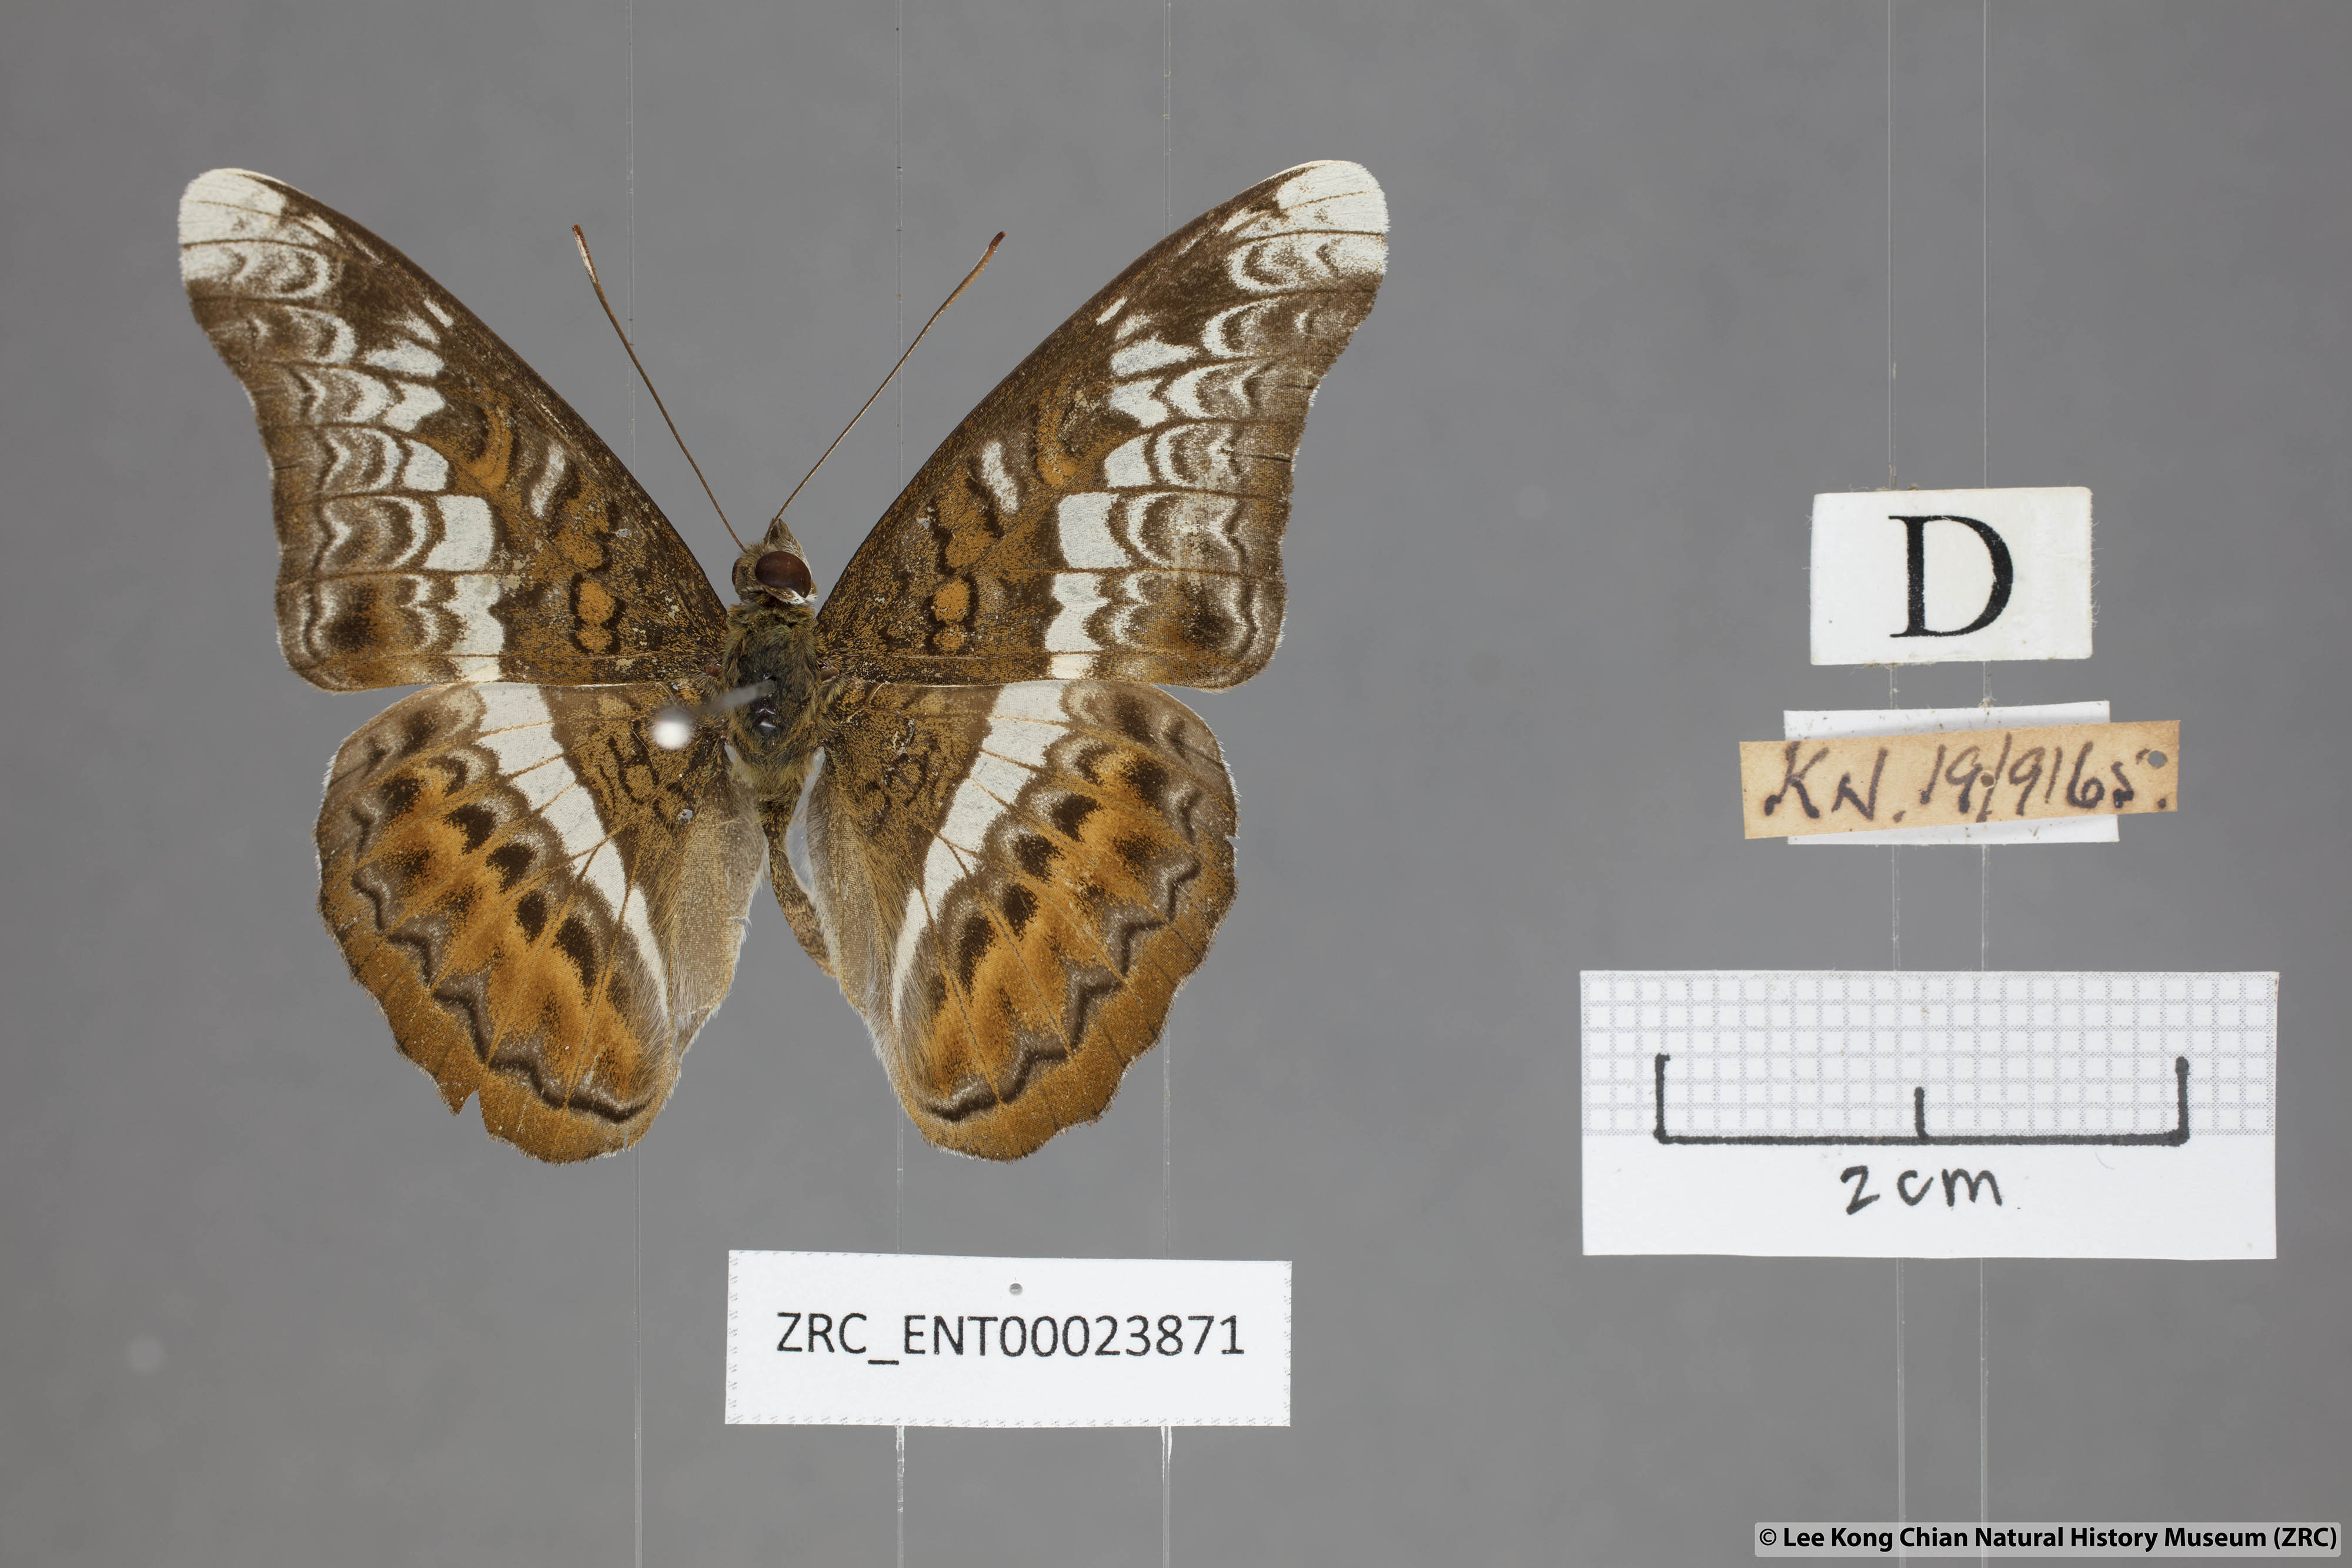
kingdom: Animalia
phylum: Arthropoda
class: Insecta
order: Lepidoptera
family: Nymphalidae
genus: Lebadea
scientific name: Lebadea martha
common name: Knight
